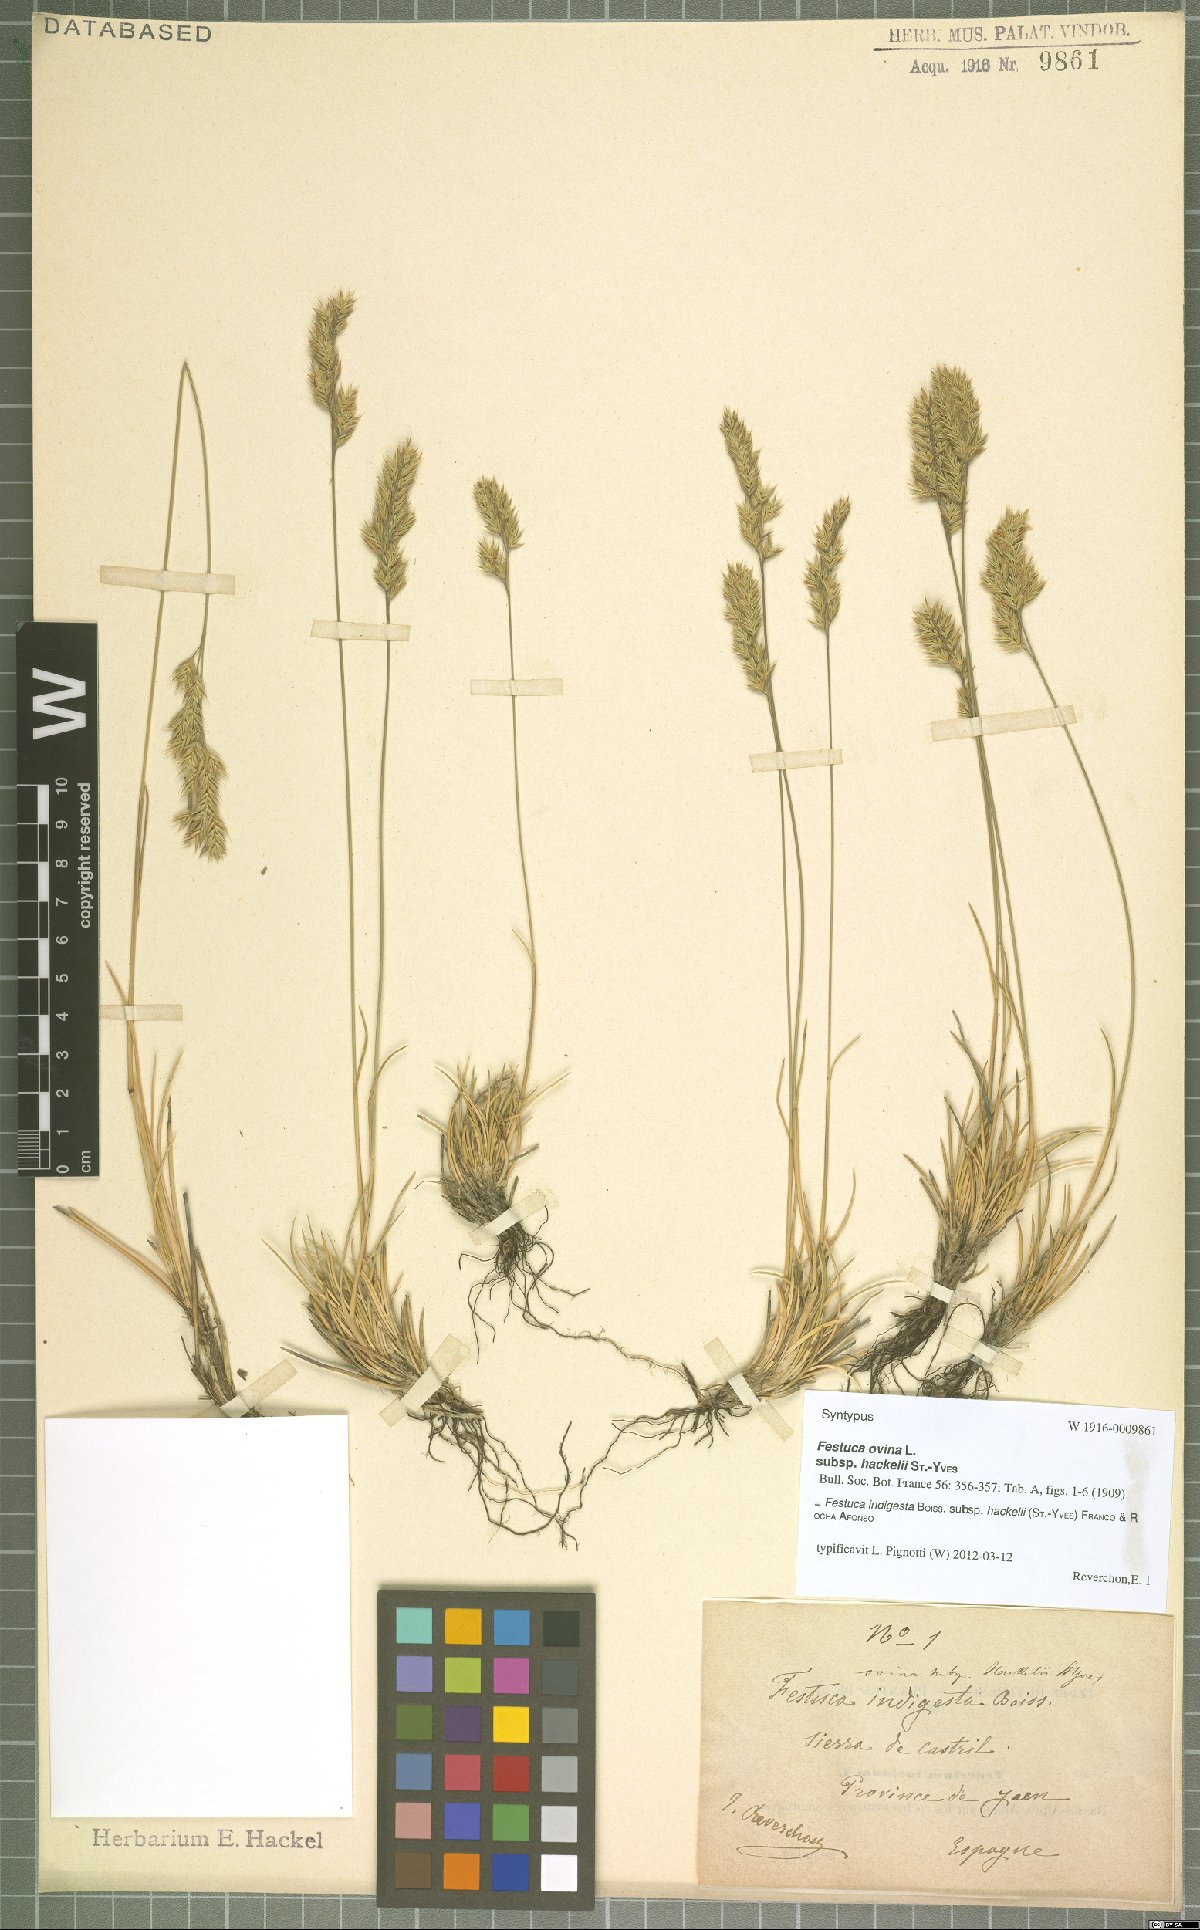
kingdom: Plantae
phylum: Tracheophyta
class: Liliopsida
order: Poales
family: Poaceae
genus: Festuca
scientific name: Festuca indigesta
